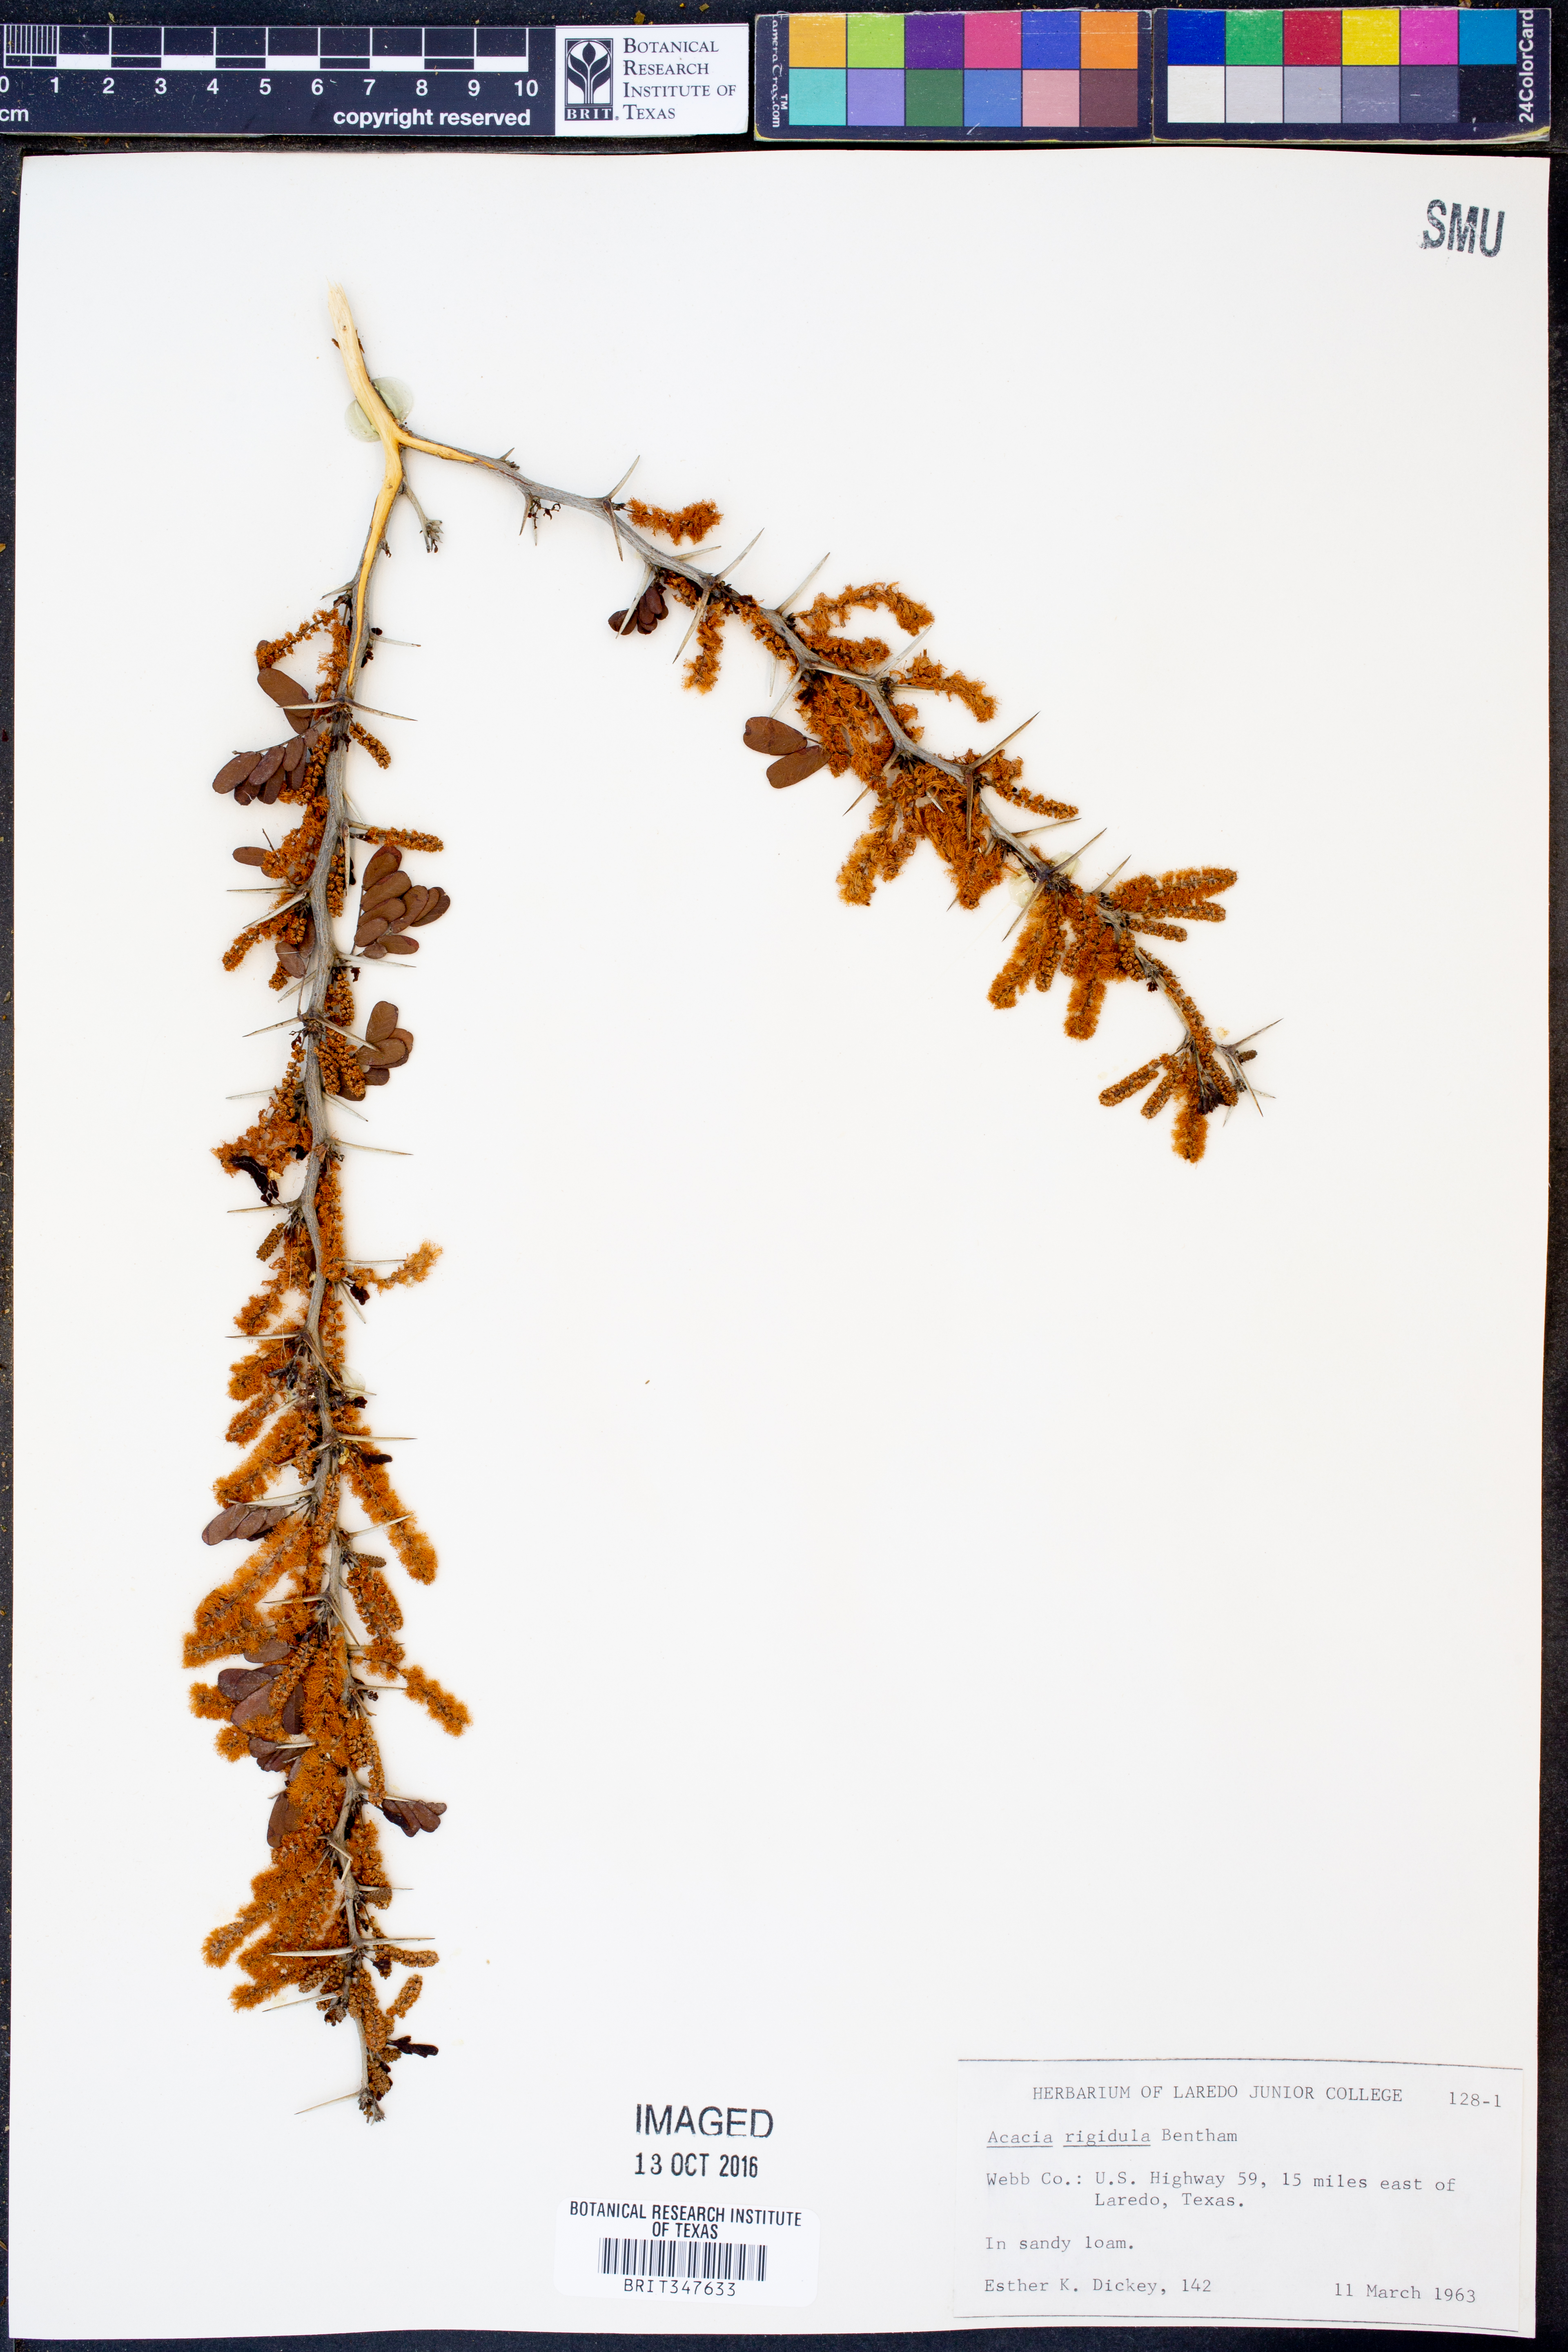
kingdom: Plantae
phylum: Tracheophyta
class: Magnoliopsida
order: Fabales
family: Fabaceae
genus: Vachellia
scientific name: Vachellia rigidula
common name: Blackbrush
